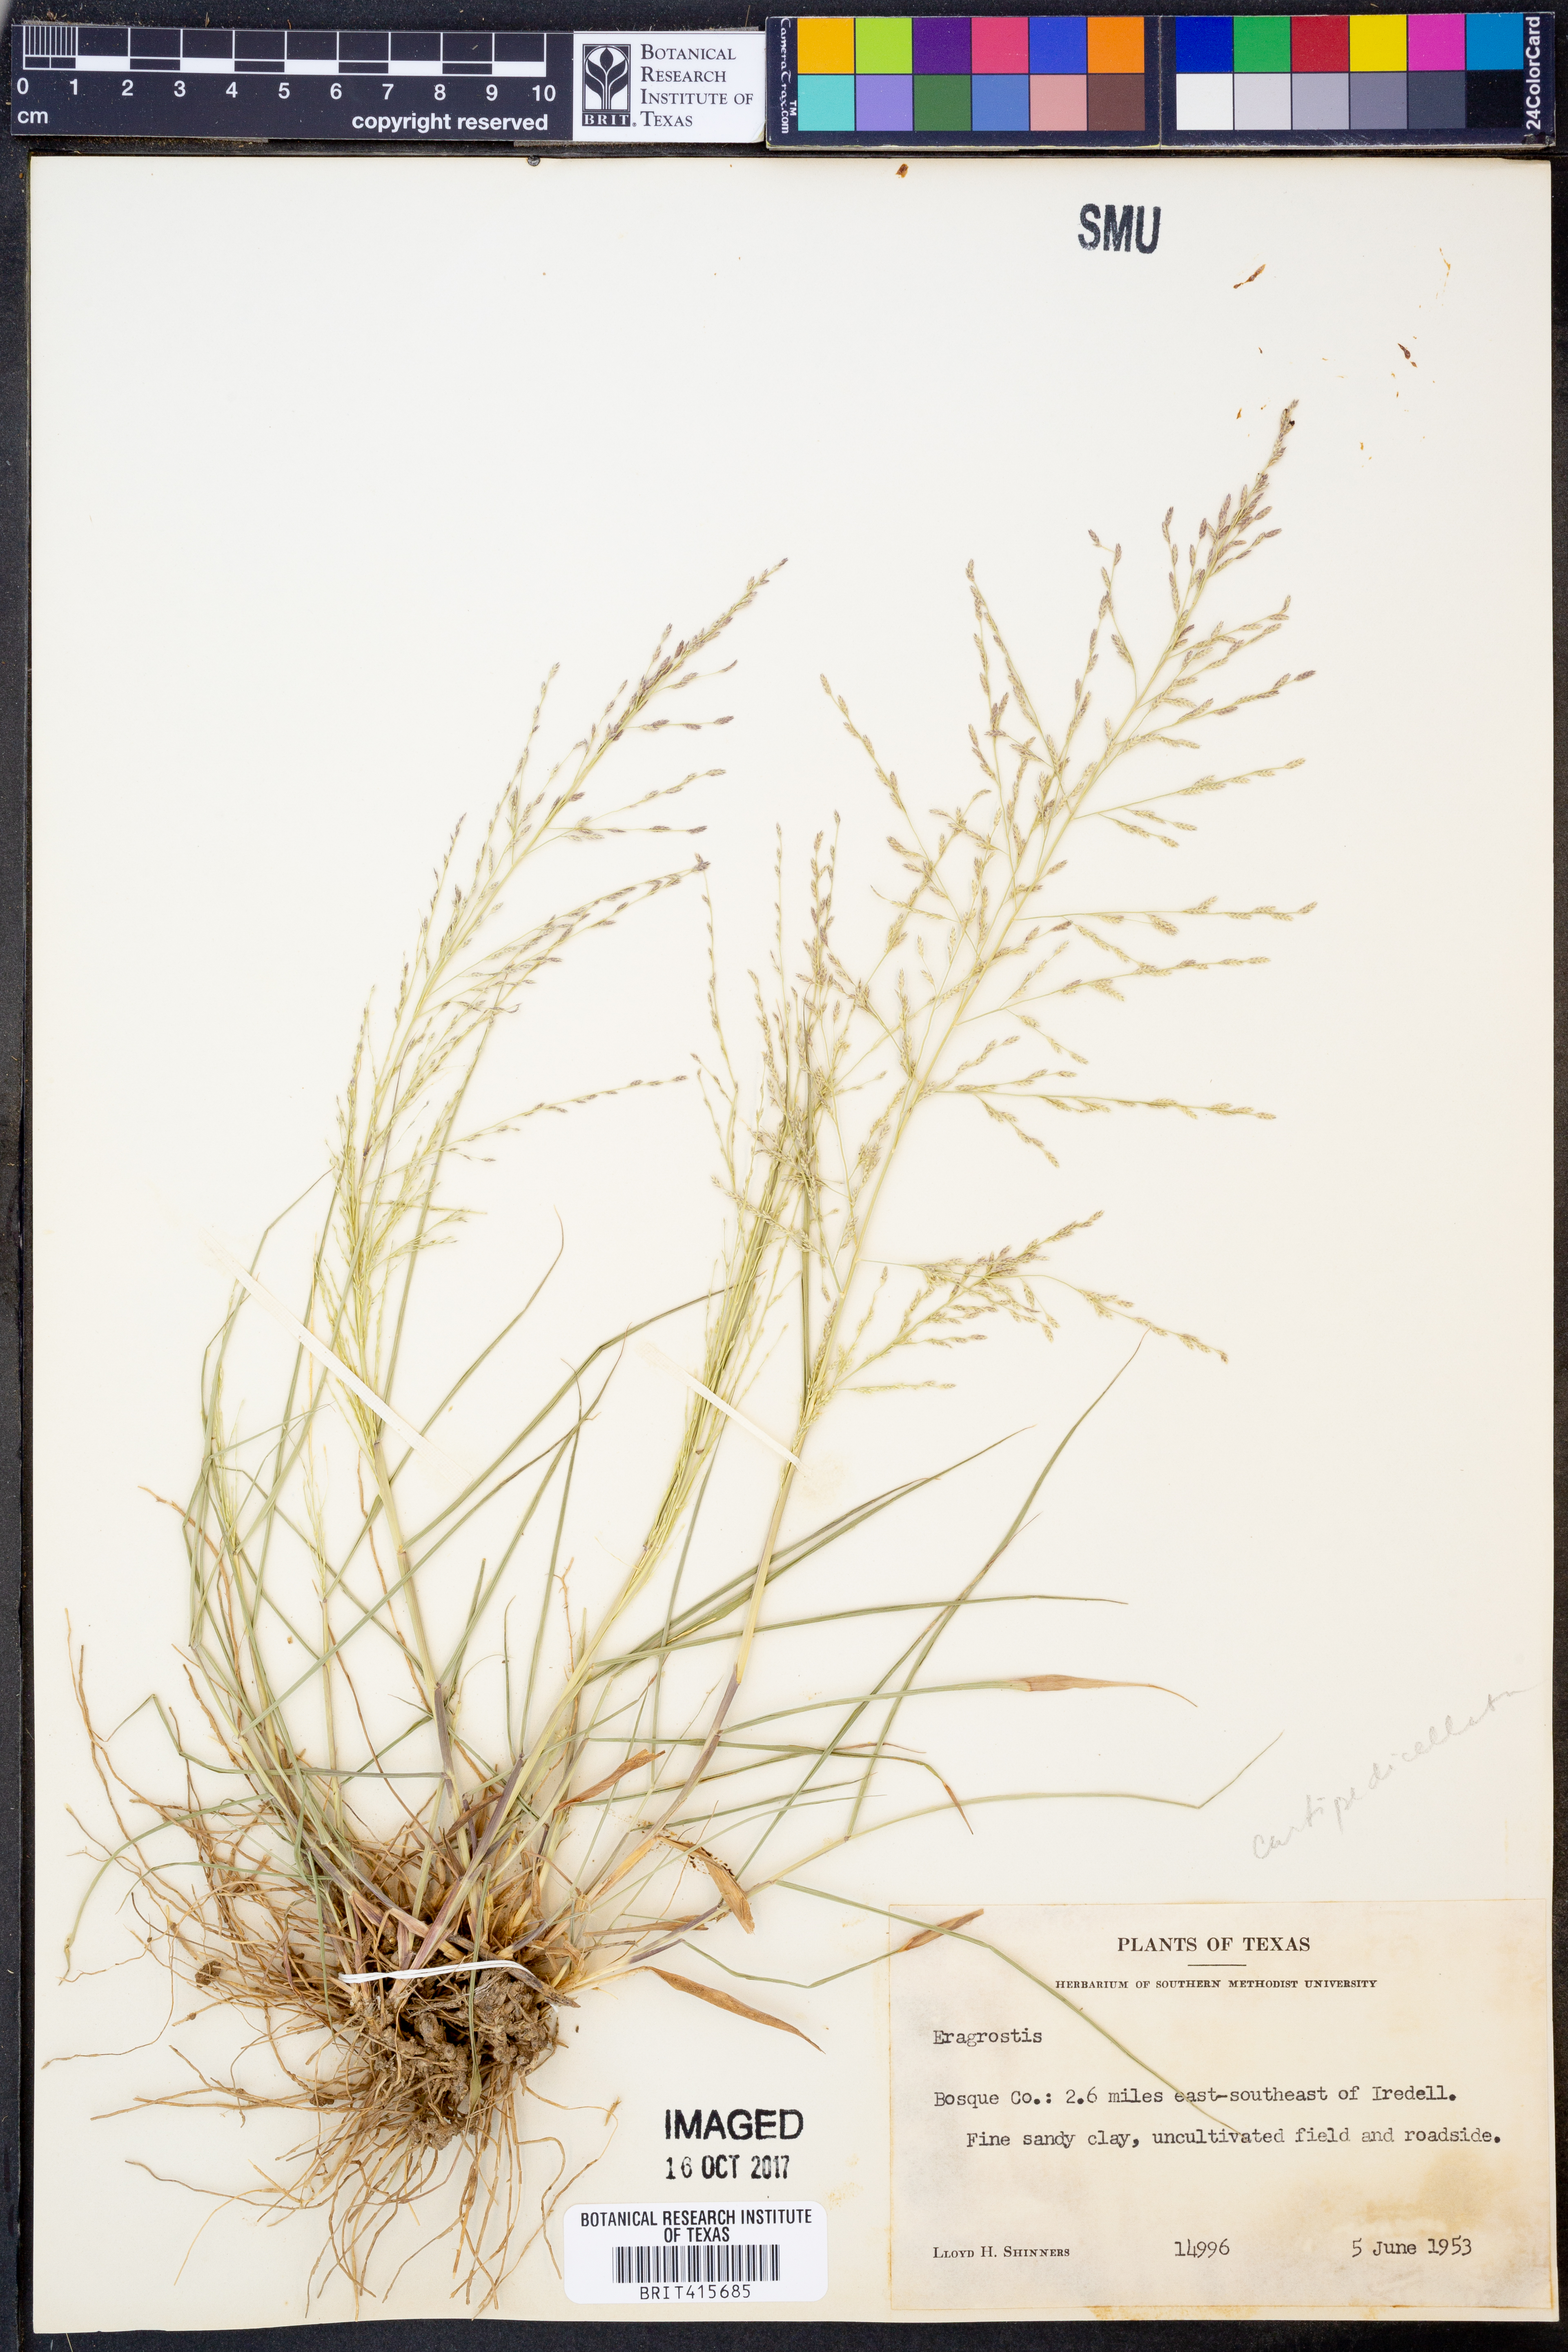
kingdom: Plantae
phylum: Tracheophyta
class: Liliopsida
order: Poales
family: Poaceae
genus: Eragrostis
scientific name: Eragrostis curtipedicellata
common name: Gummy love grass
